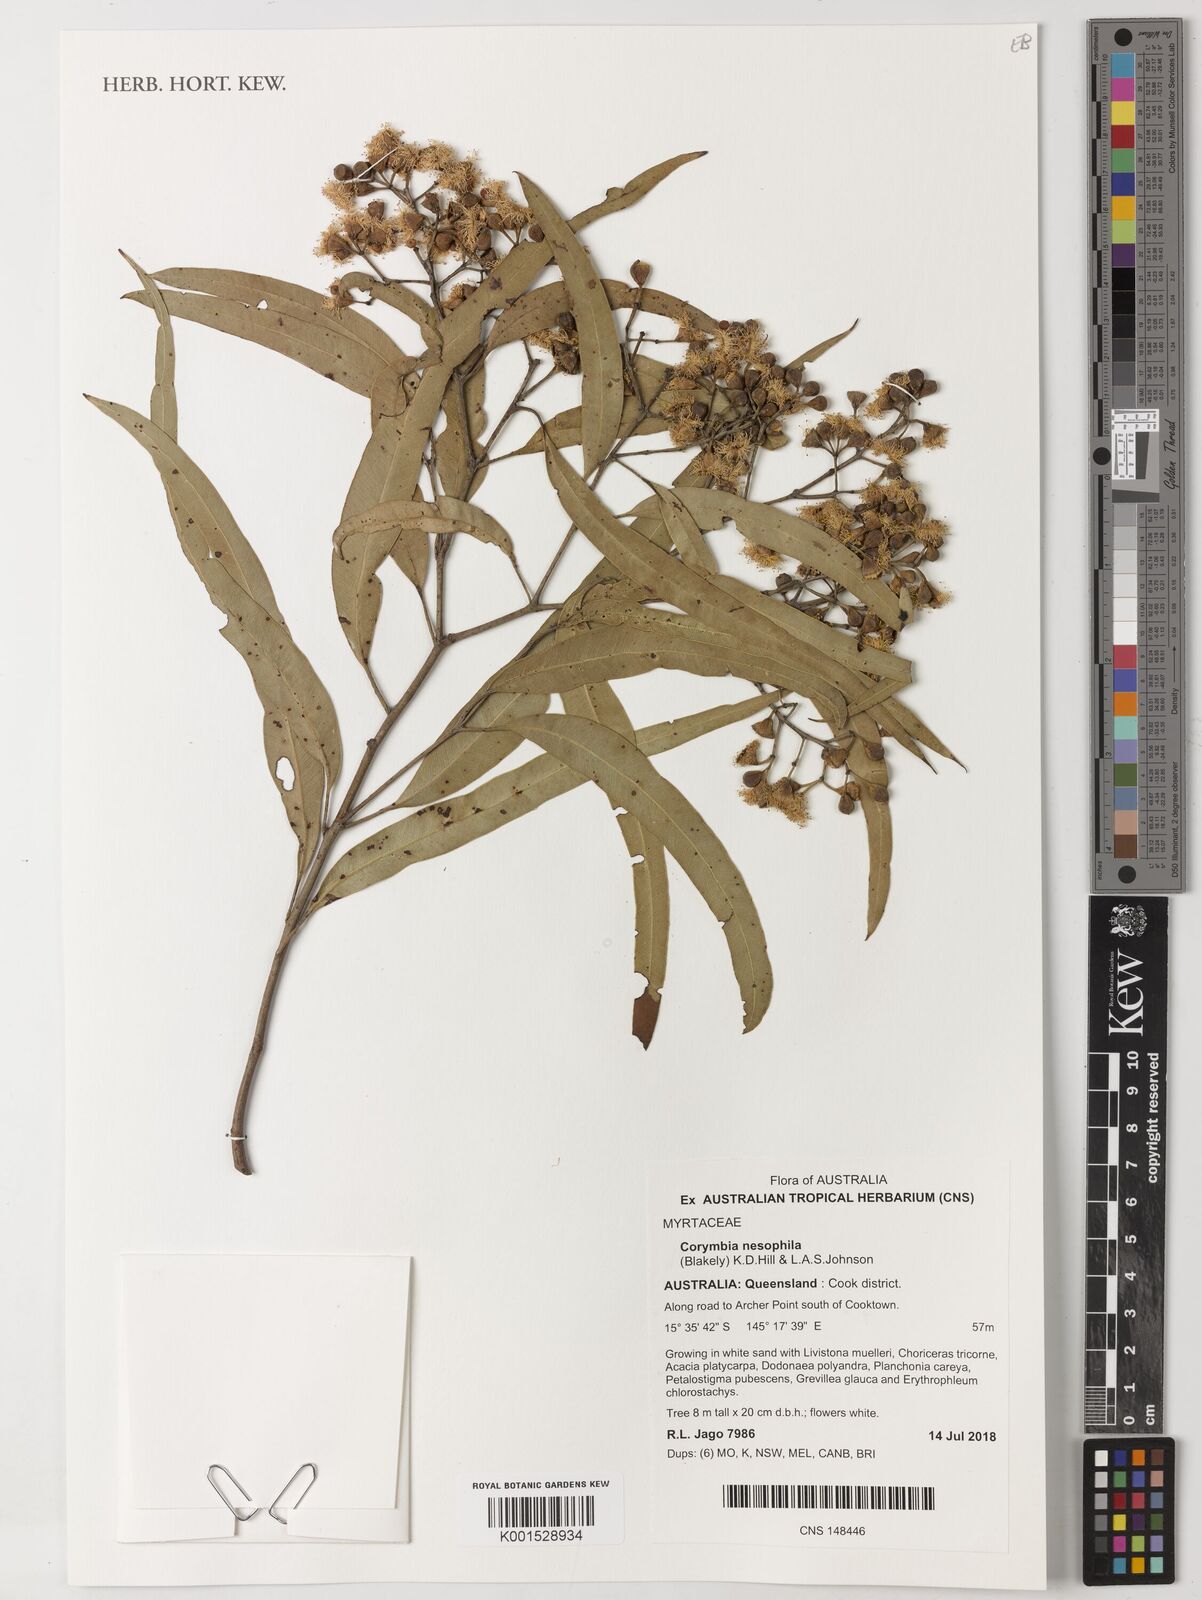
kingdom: Plantae
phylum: Tracheophyta
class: Magnoliopsida
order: Myrtales
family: Myrtaceae
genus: Corymbia
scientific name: Corymbia nesophila
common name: Melville-island-bloodwood
